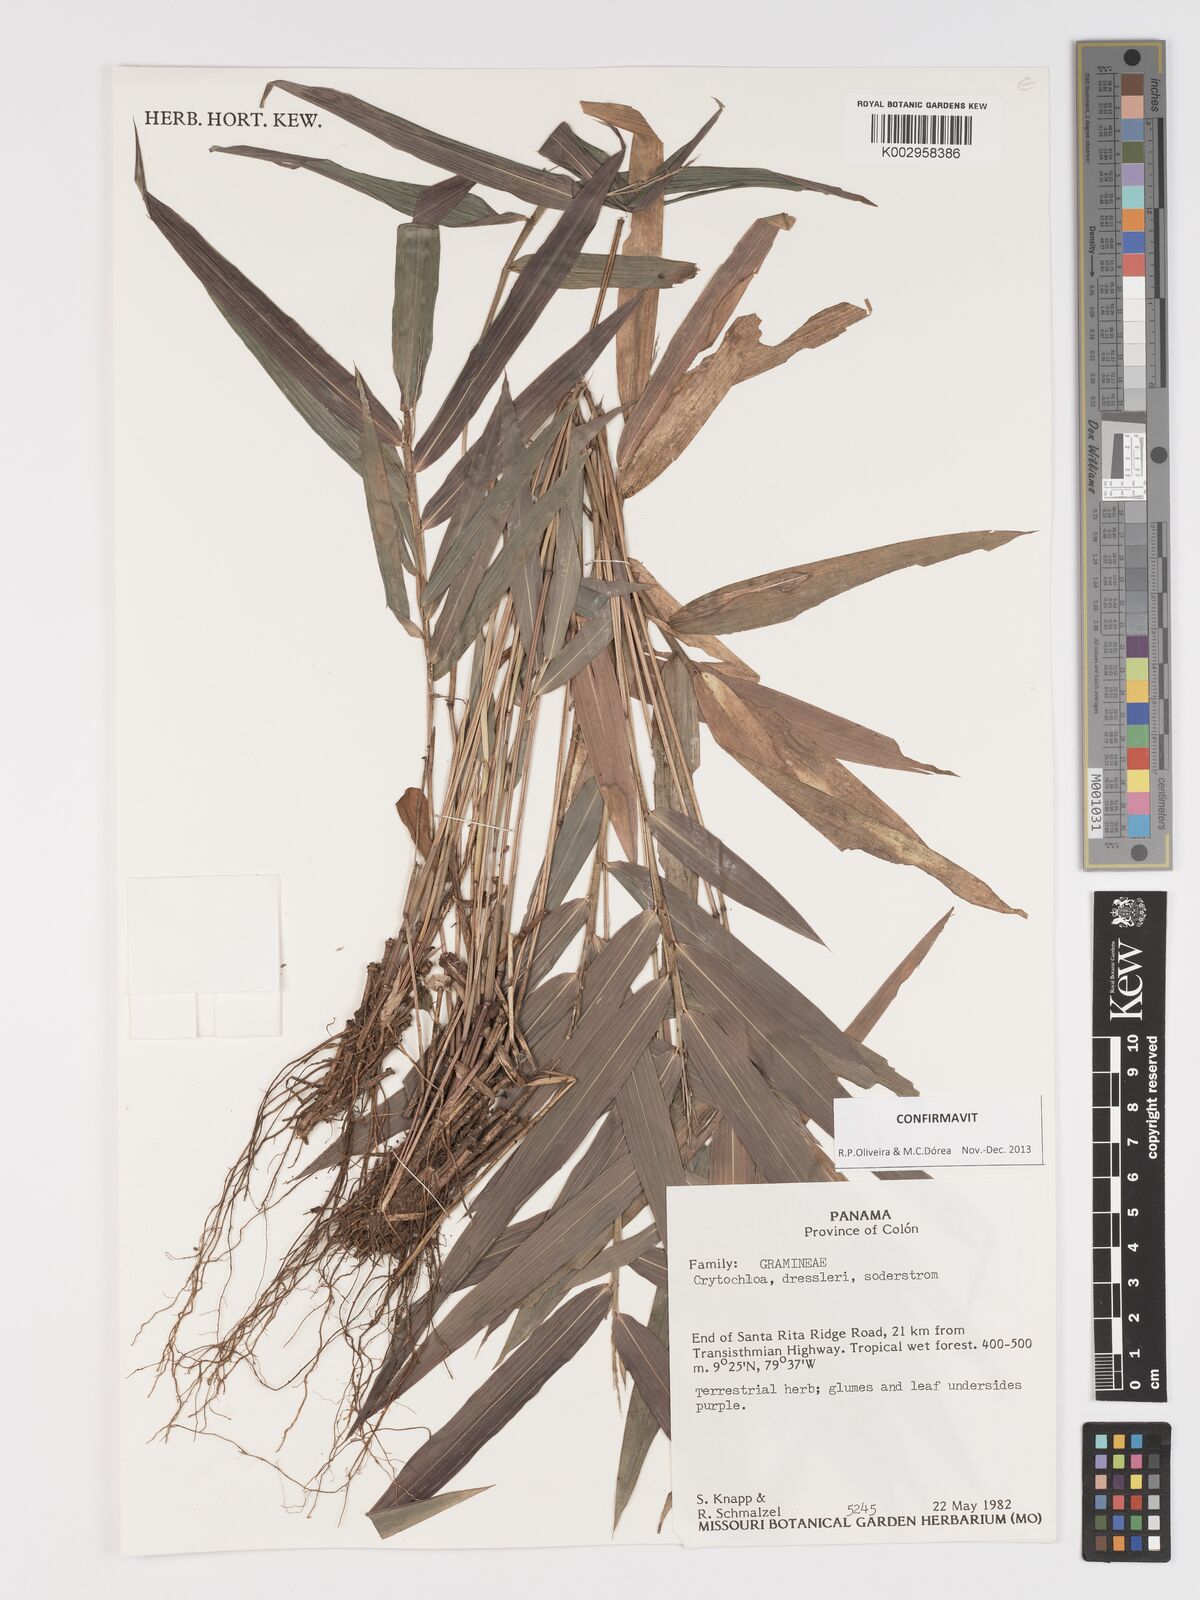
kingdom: Plantae
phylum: Tracheophyta
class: Liliopsida
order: Poales
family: Poaceae
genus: Cryptochloa
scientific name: Cryptochloa dressleri
